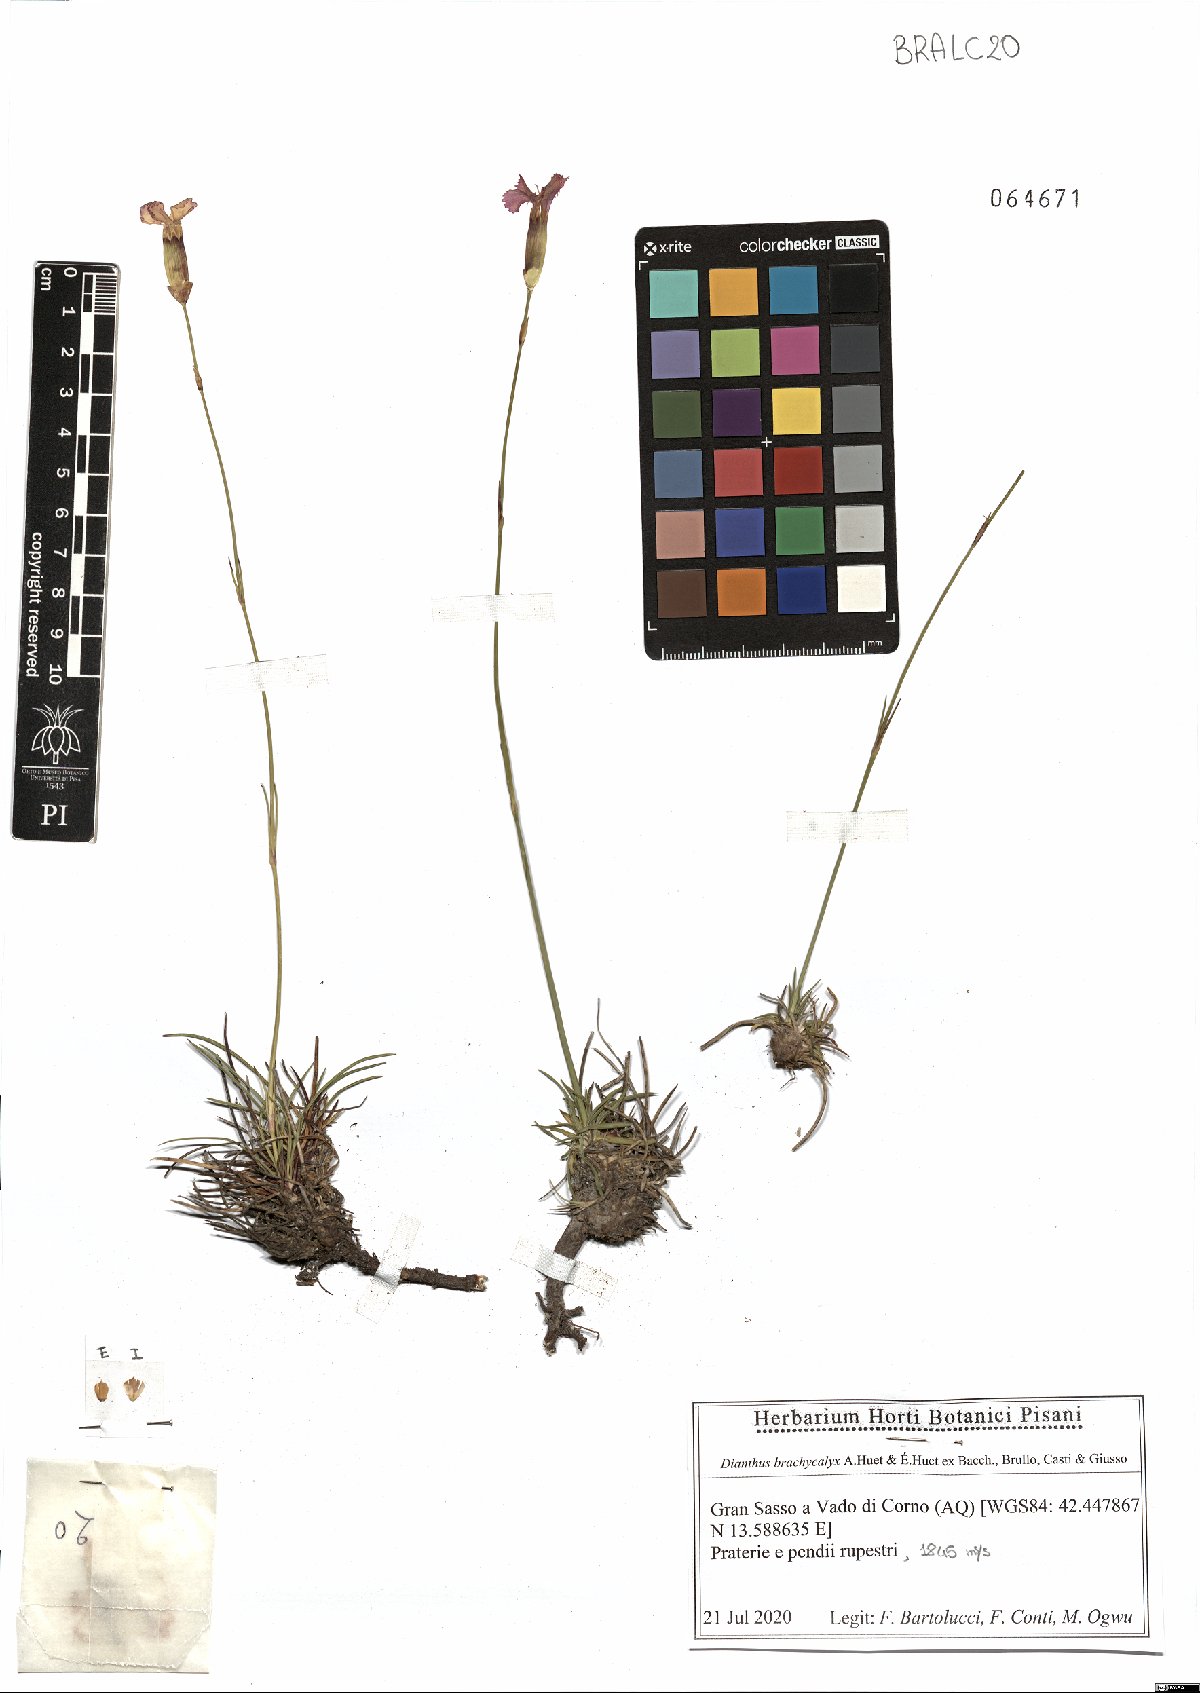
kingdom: Plantae
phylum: Tracheophyta
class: Magnoliopsida
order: Caryophyllales
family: Caryophyllaceae
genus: Dianthus
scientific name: Dianthus brachycalyx
